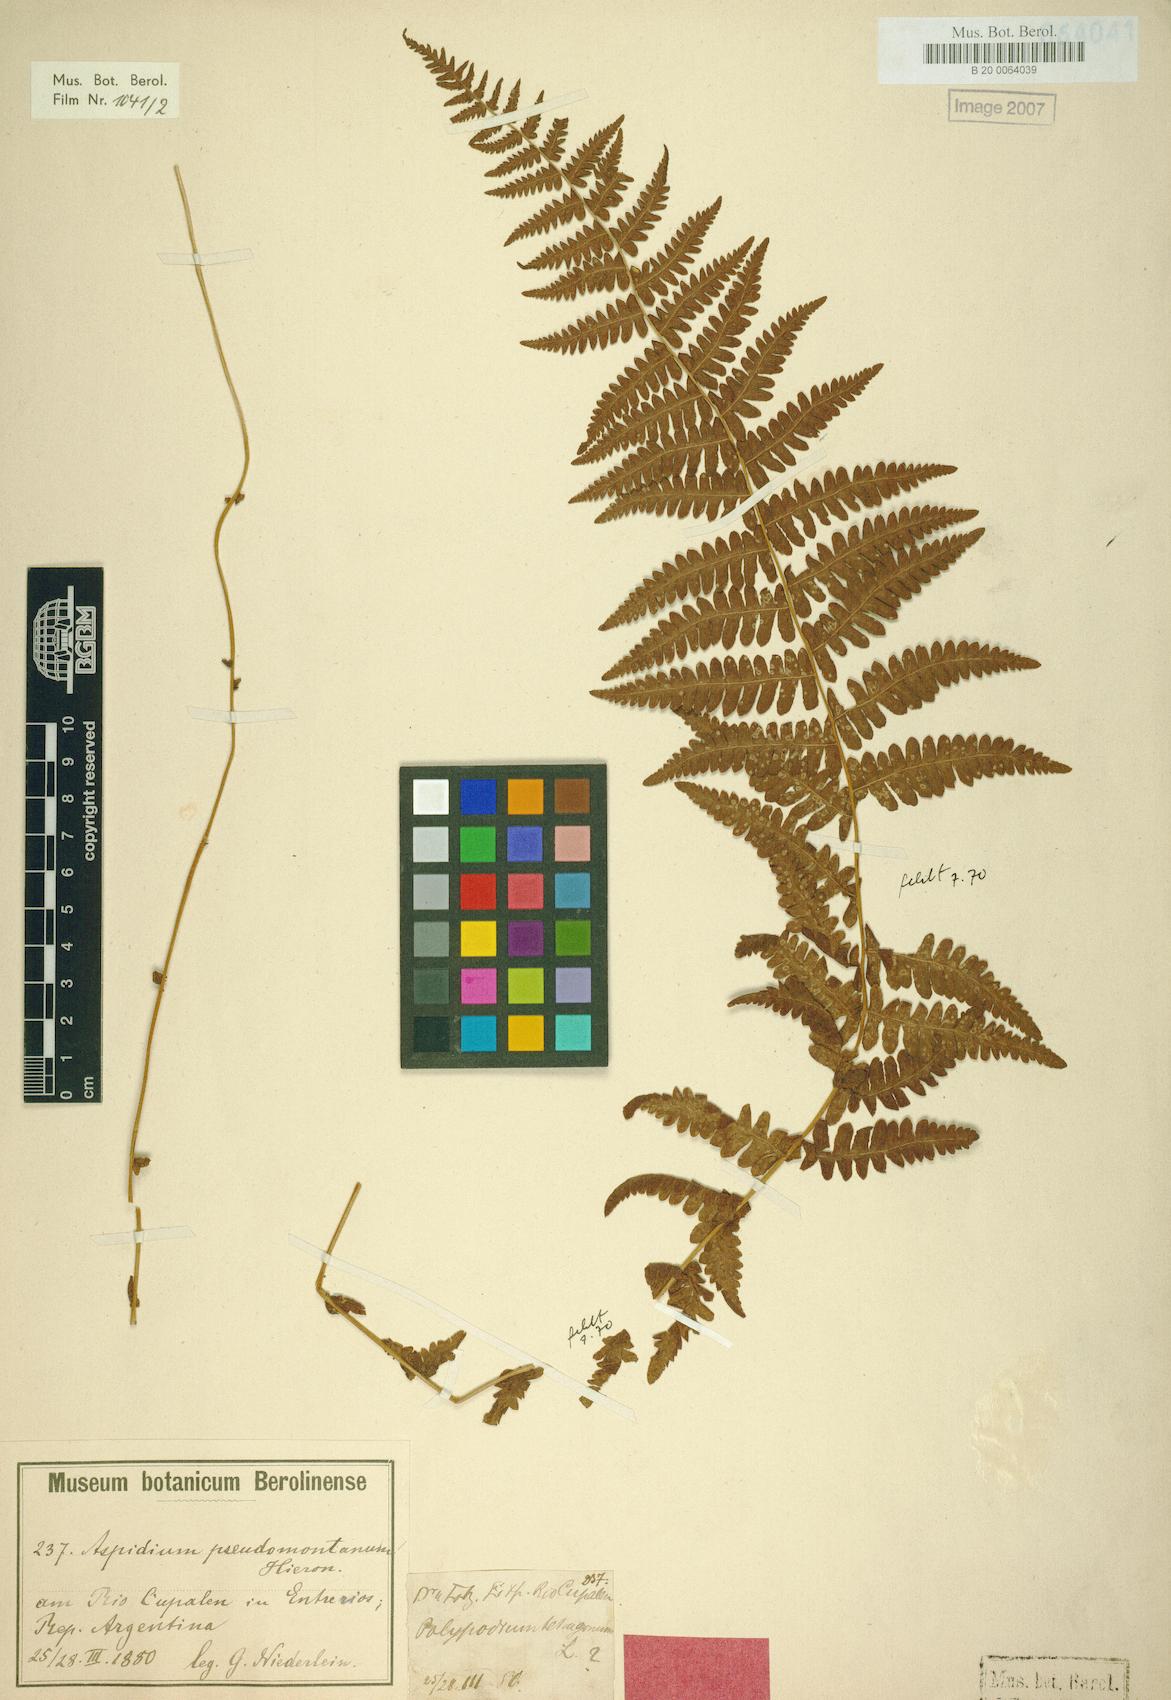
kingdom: Plantae
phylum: Tracheophyta
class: Polypodiopsida
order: Polypodiales
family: Thelypteridaceae
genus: Amauropelta
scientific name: Amauropelta rivularioides
